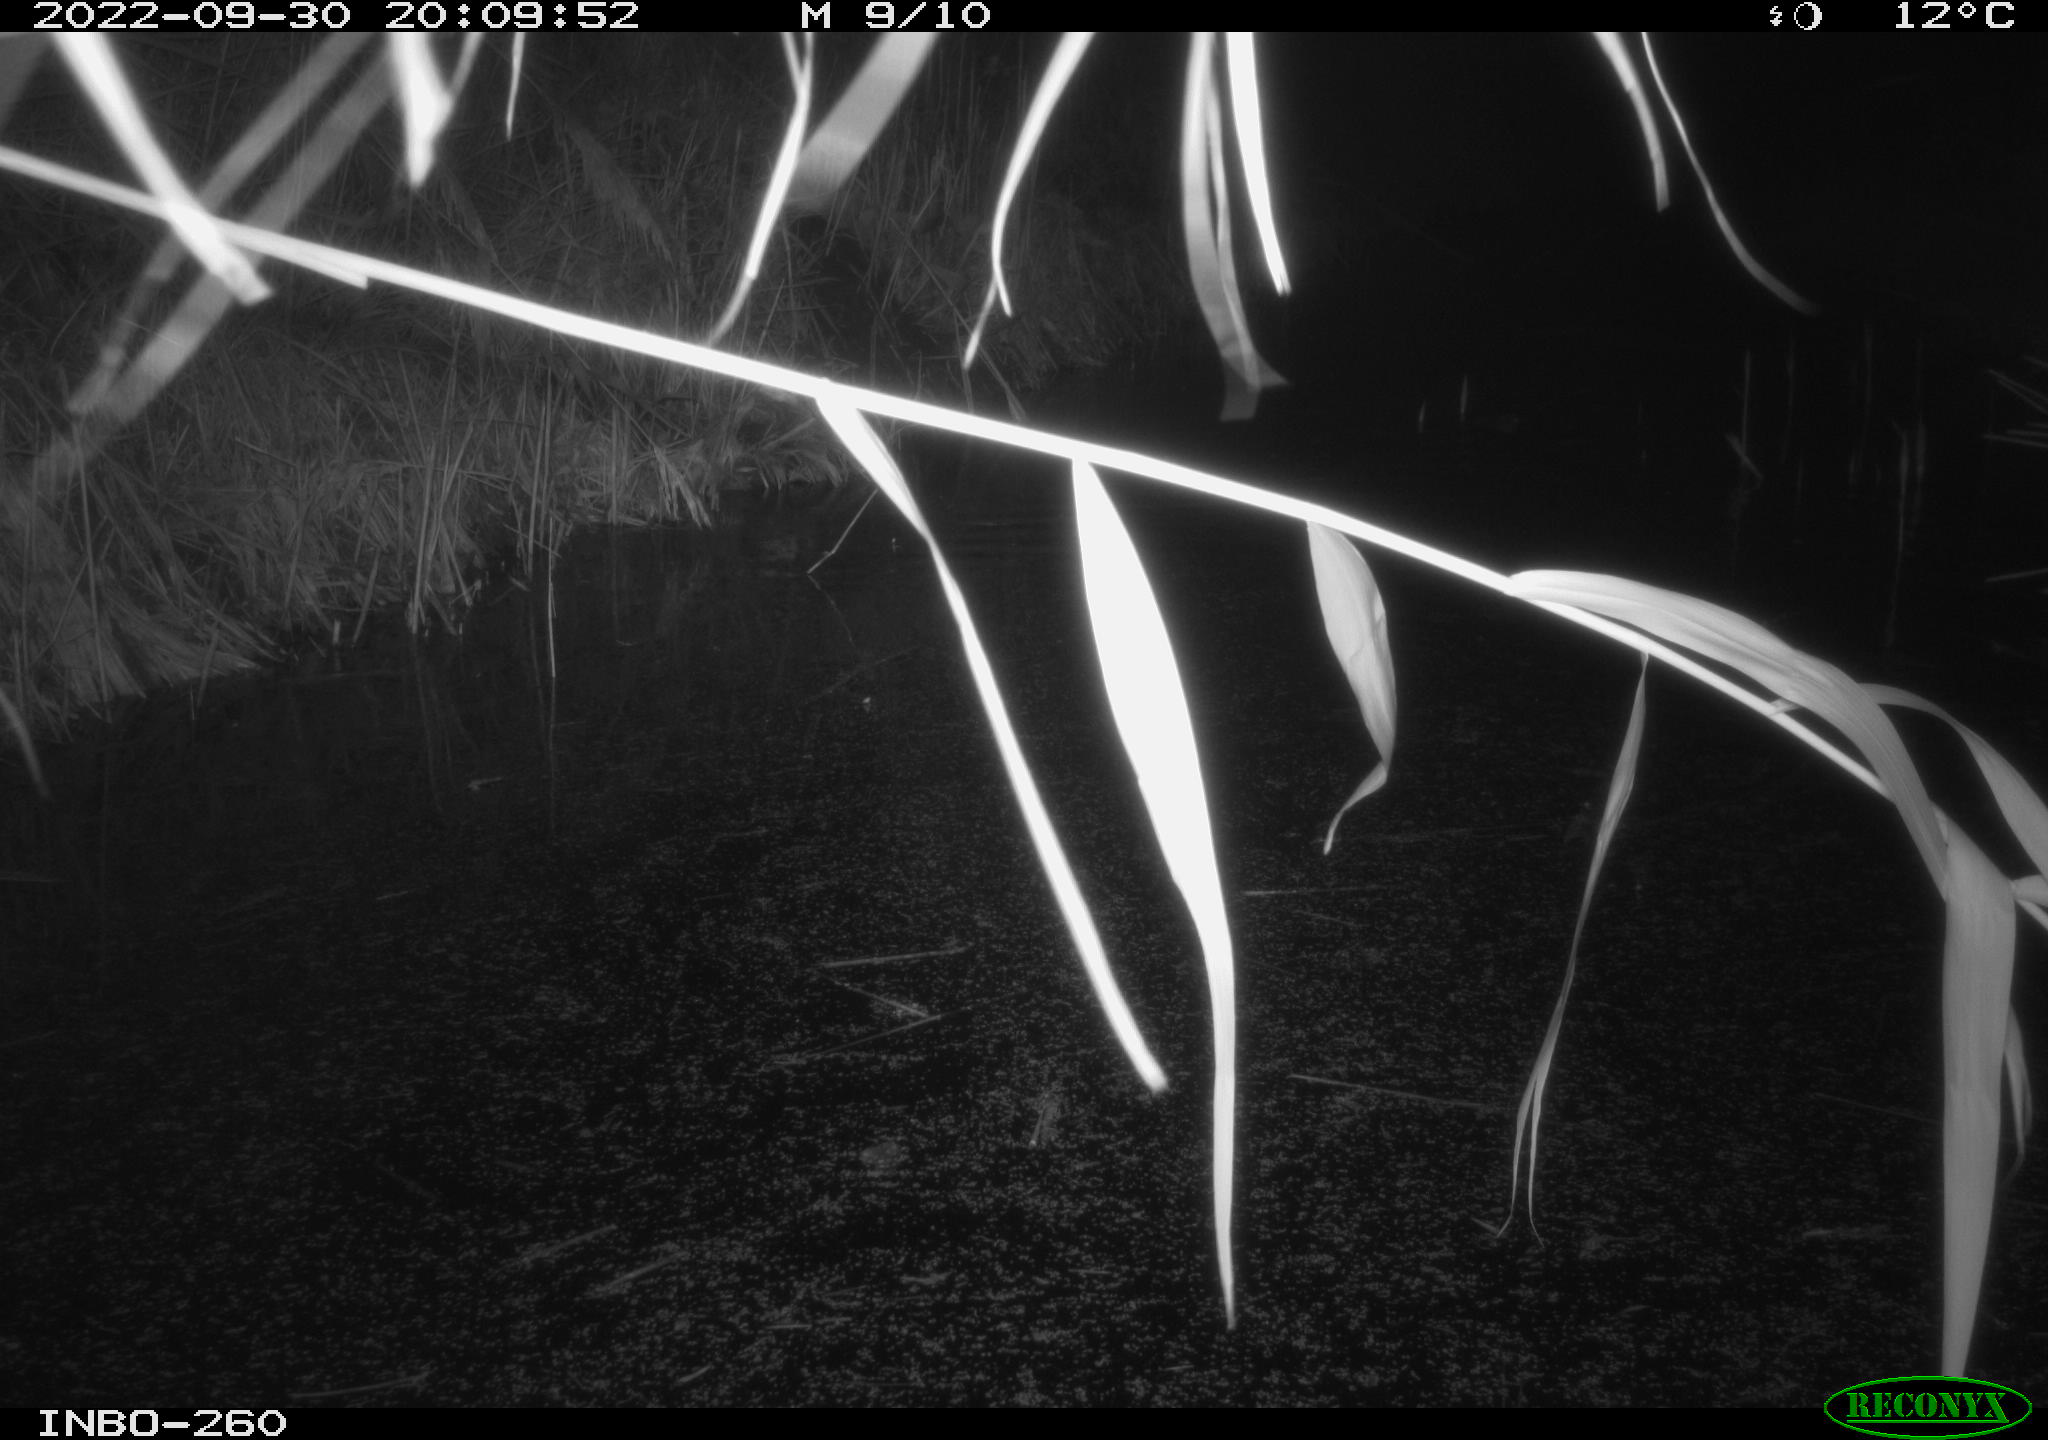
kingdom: Animalia
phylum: Chordata
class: Mammalia
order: Rodentia
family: Muridae
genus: Rattus
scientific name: Rattus norvegicus
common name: Brown rat
